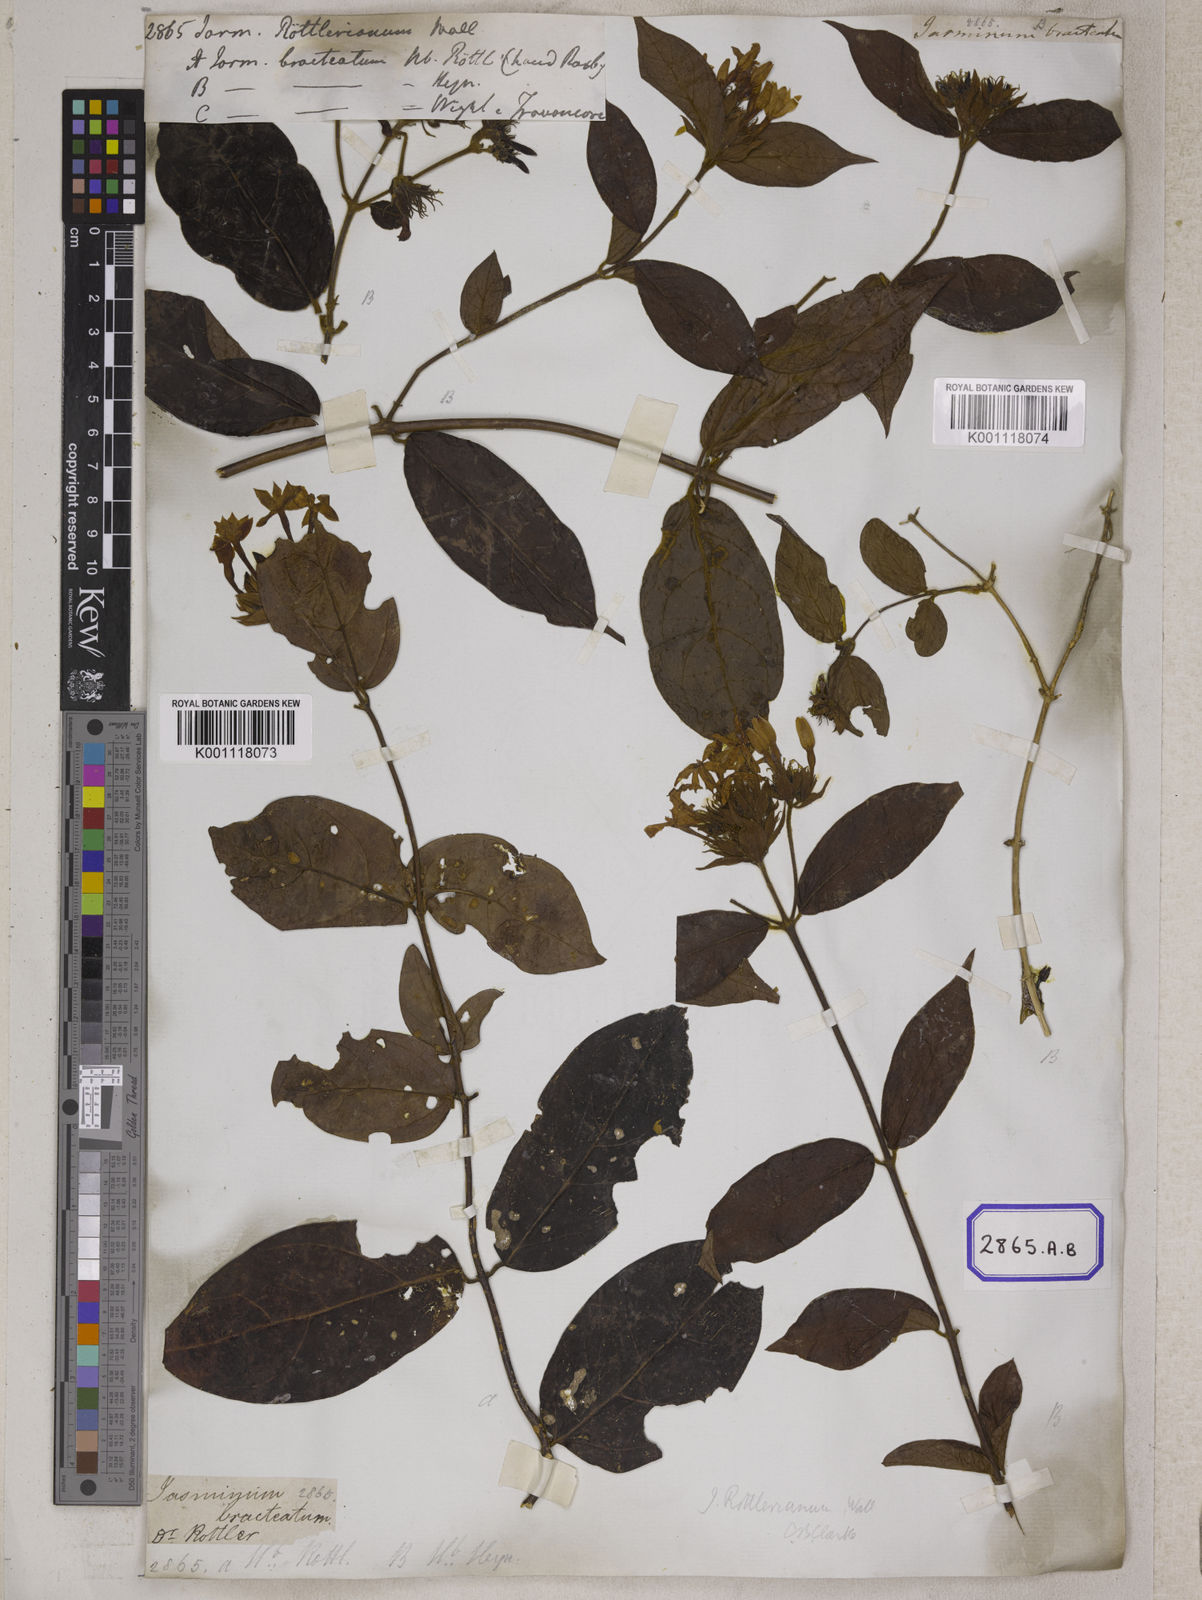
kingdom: Plantae
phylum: Tracheophyta
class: Magnoliopsida
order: Lamiales
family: Oleaceae
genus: Jasminum
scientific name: Jasminum
